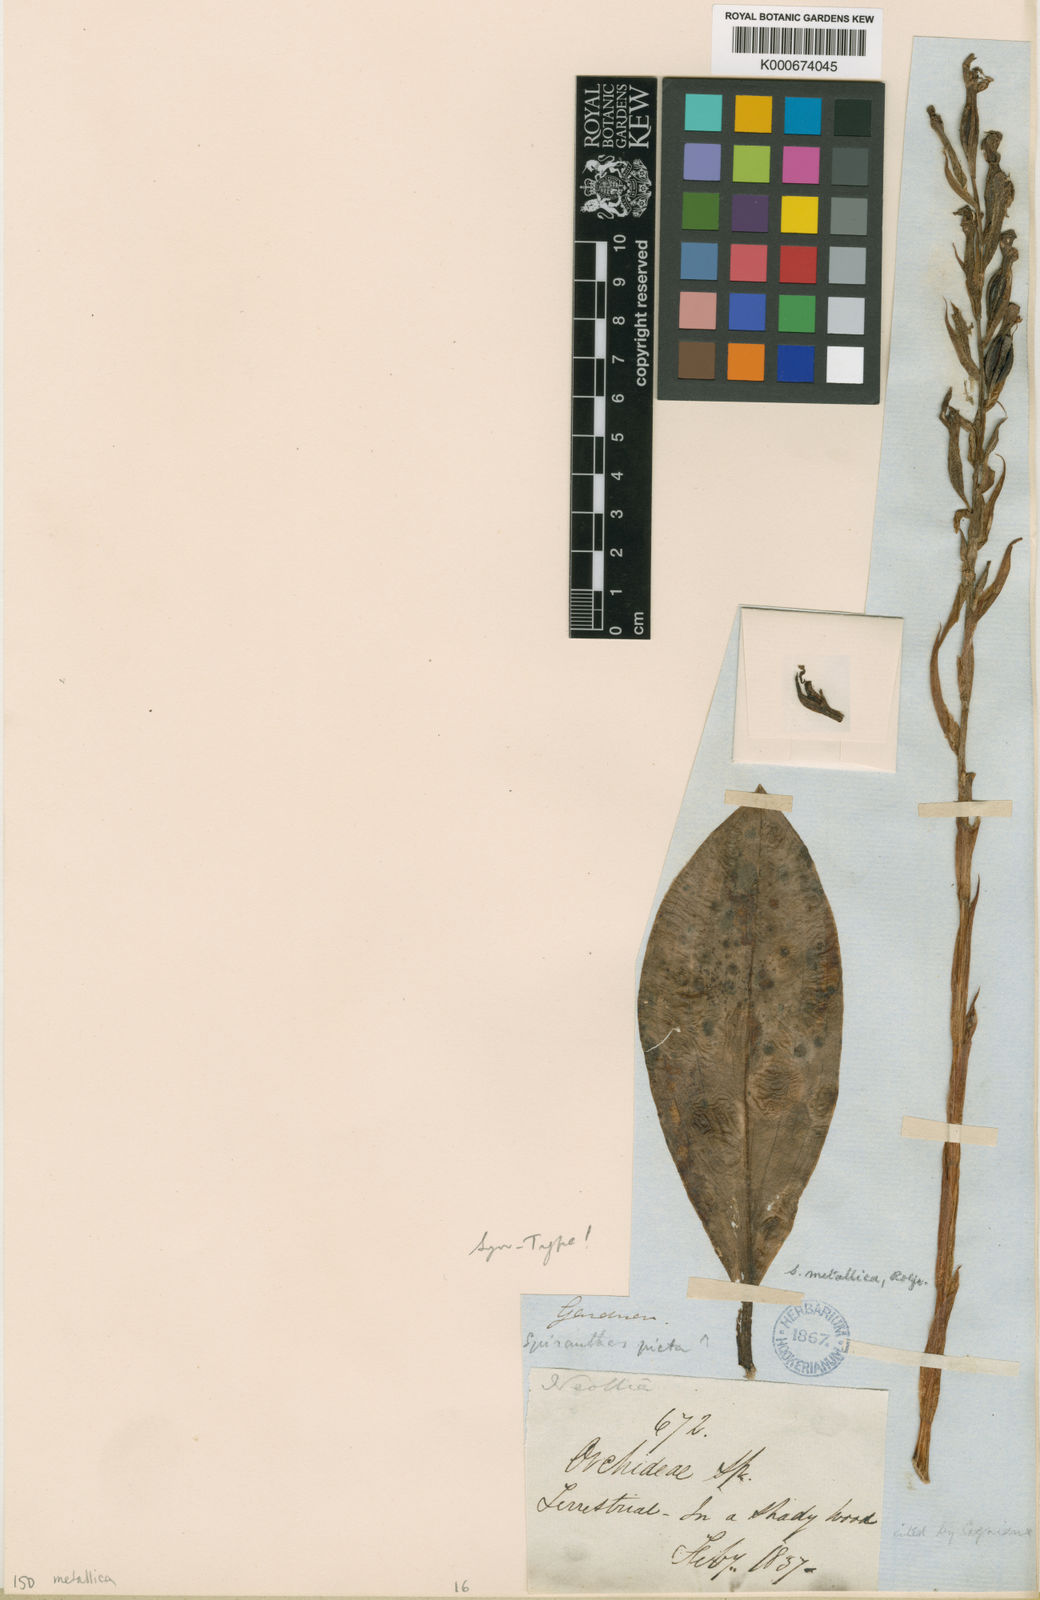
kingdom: Plantae
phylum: Tracheophyta
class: Liliopsida
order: Asparagales
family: Orchidaceae
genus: Spiranthes
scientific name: Spiranthes
